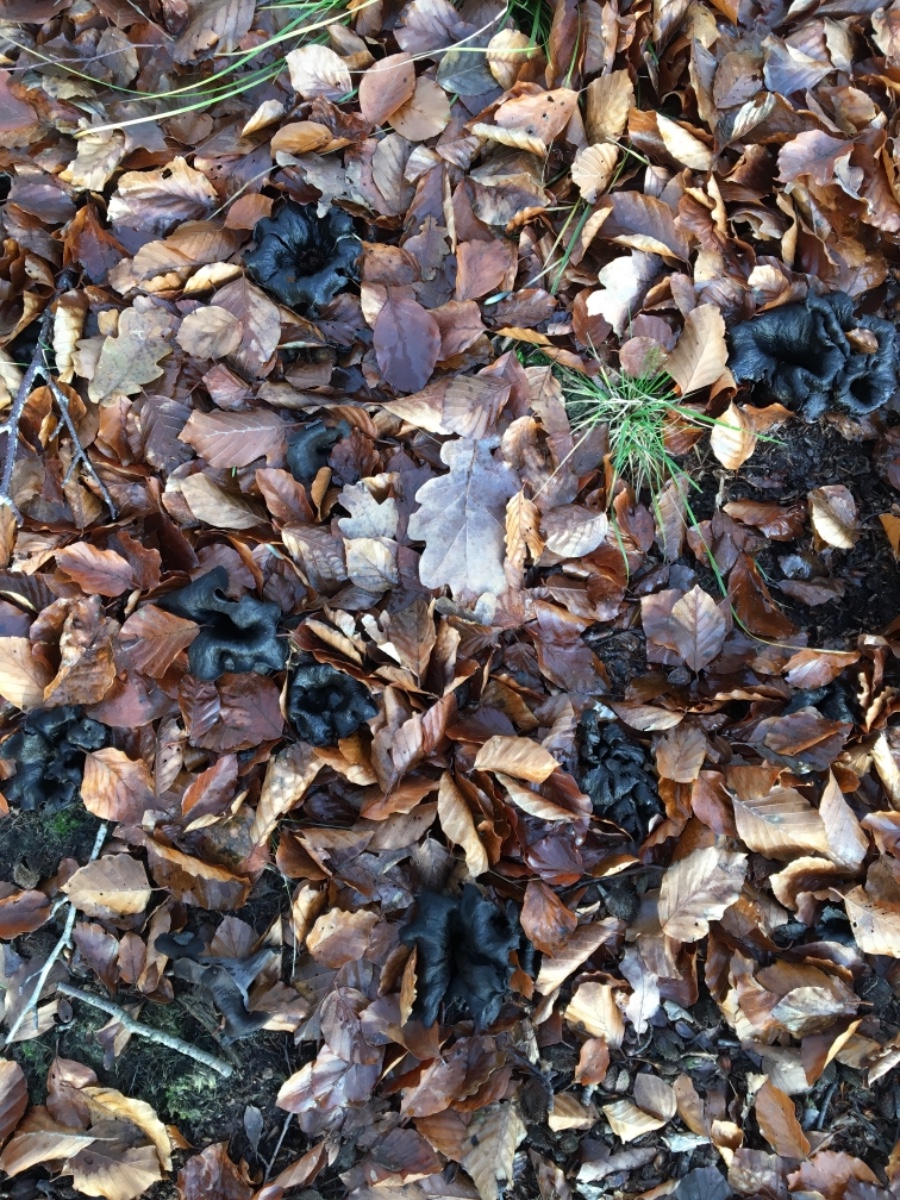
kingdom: Fungi
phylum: Basidiomycota
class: Agaricomycetes
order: Cantharellales
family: Hydnaceae
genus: Craterellus
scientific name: Craterellus cornucopioides
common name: trompetsvamp
